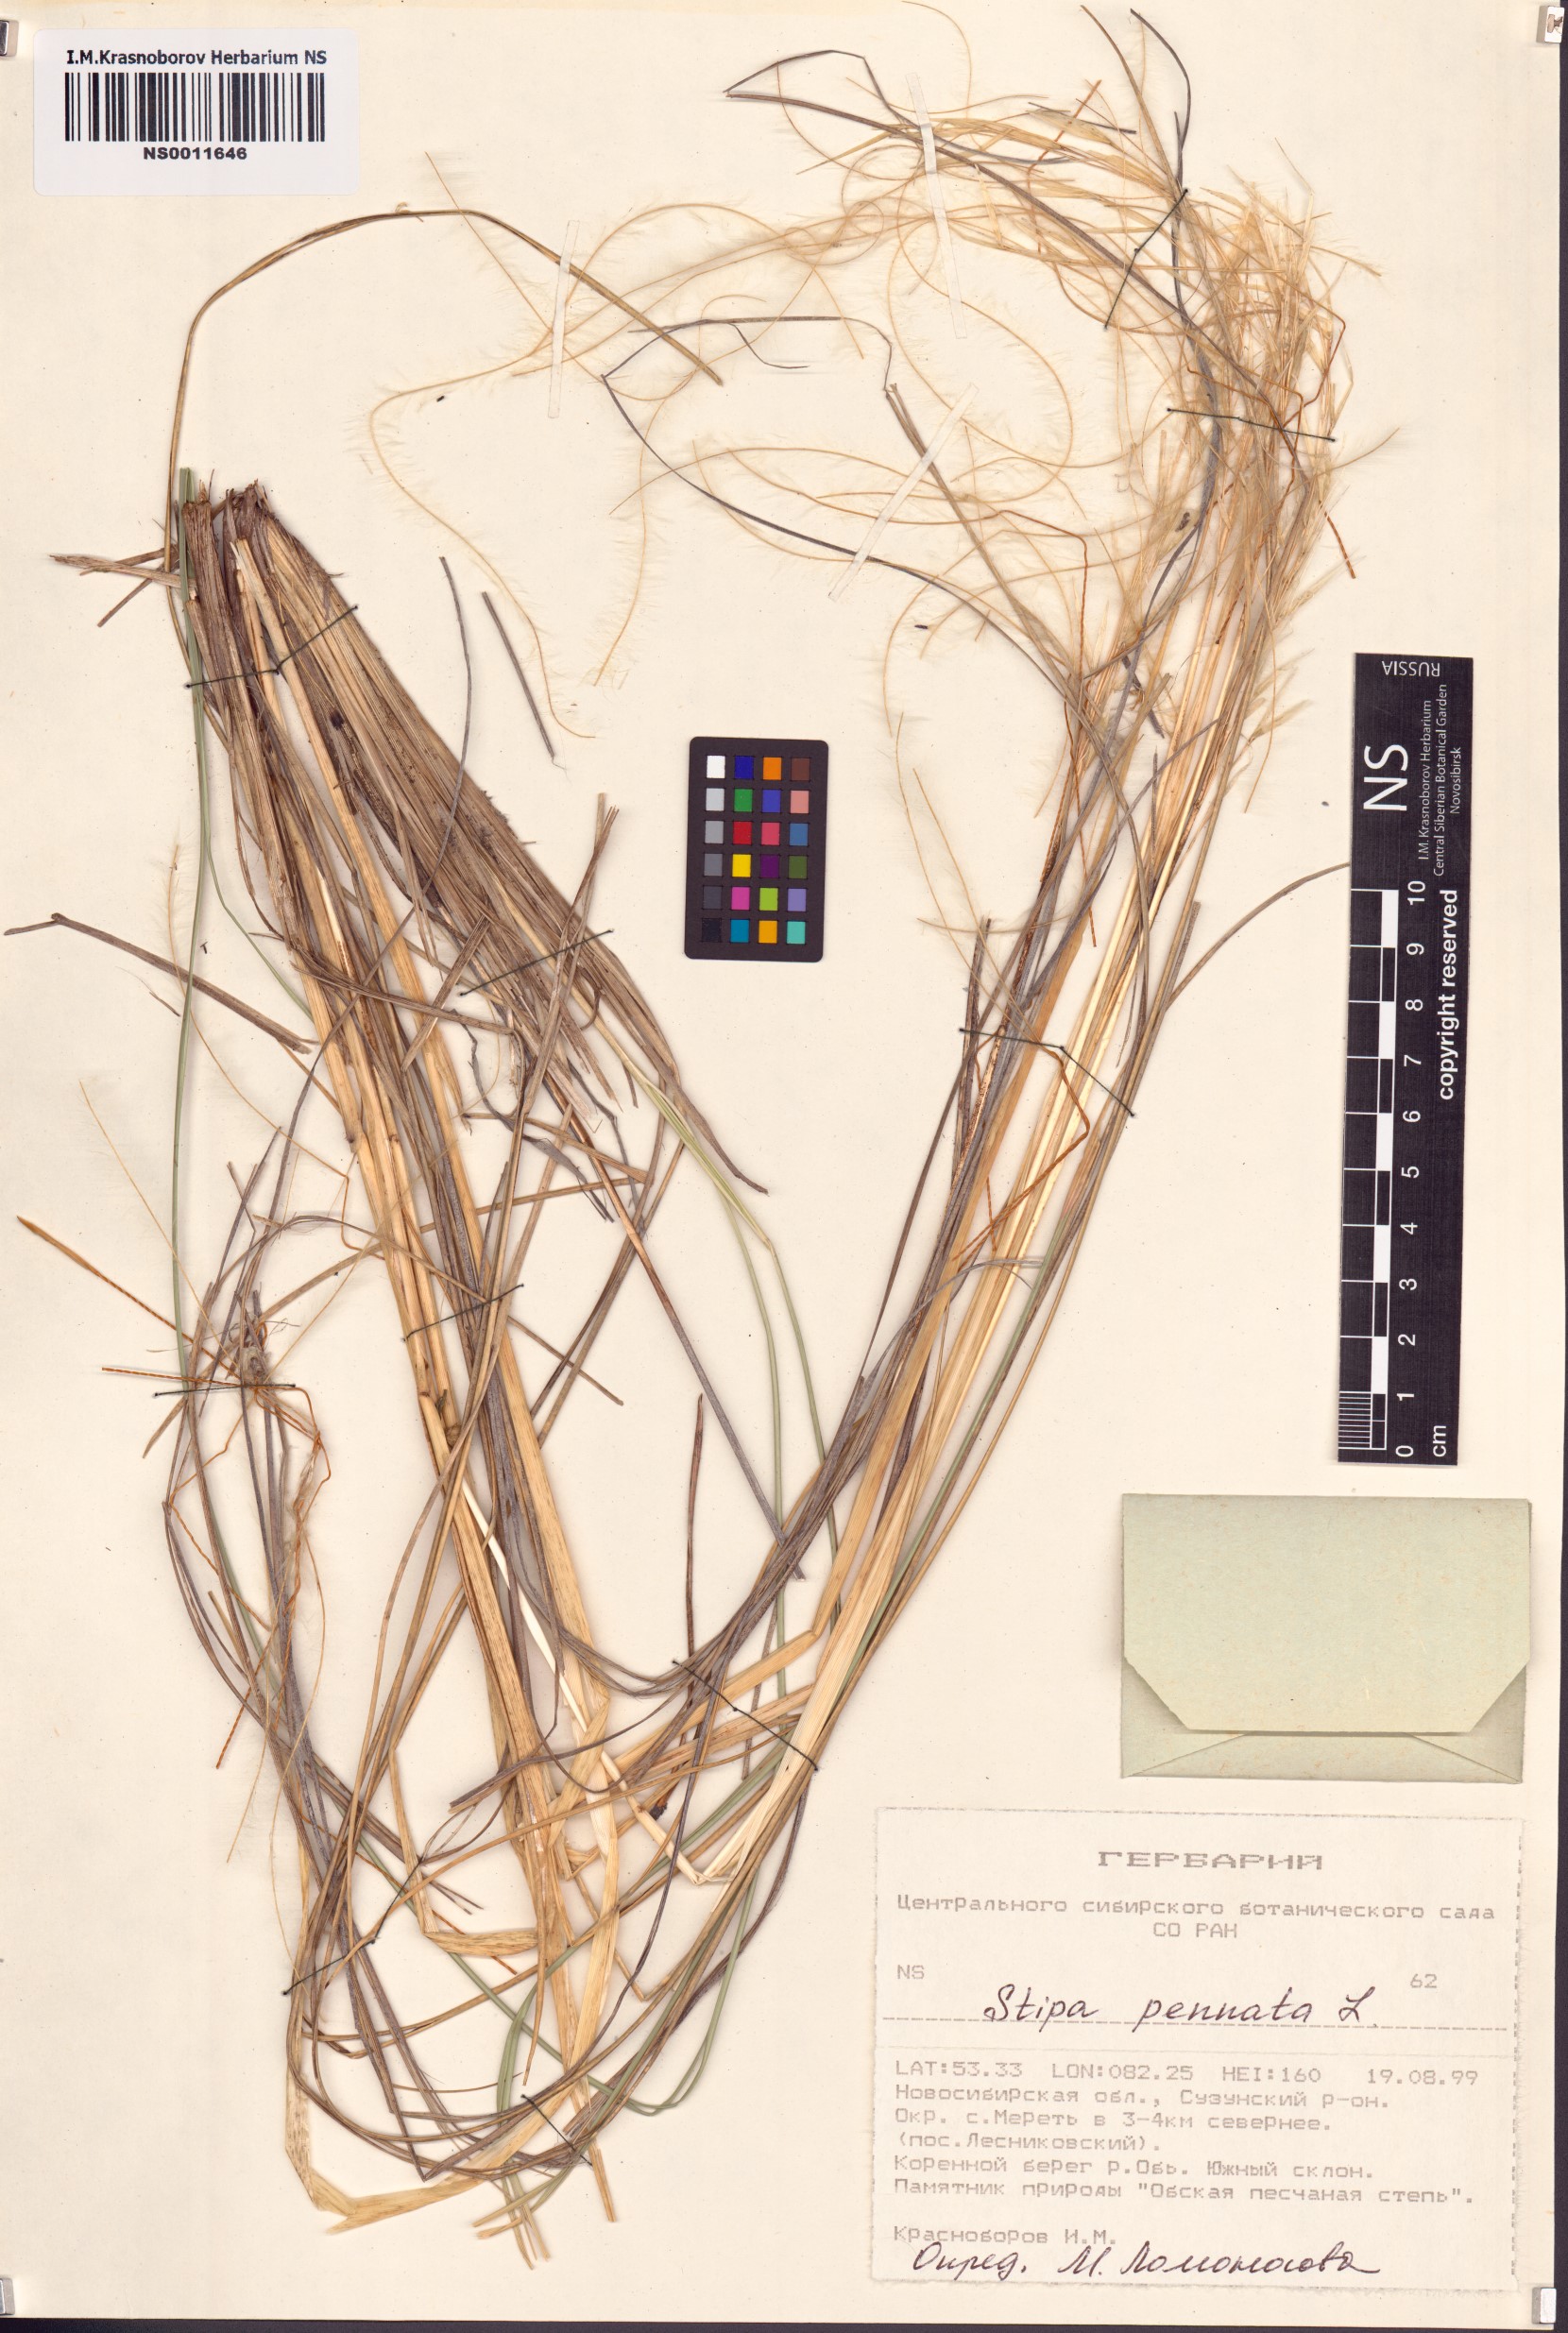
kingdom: Plantae
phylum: Tracheophyta
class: Liliopsida
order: Poales
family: Poaceae
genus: Stipa
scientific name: Stipa pennata
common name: European feather grass
